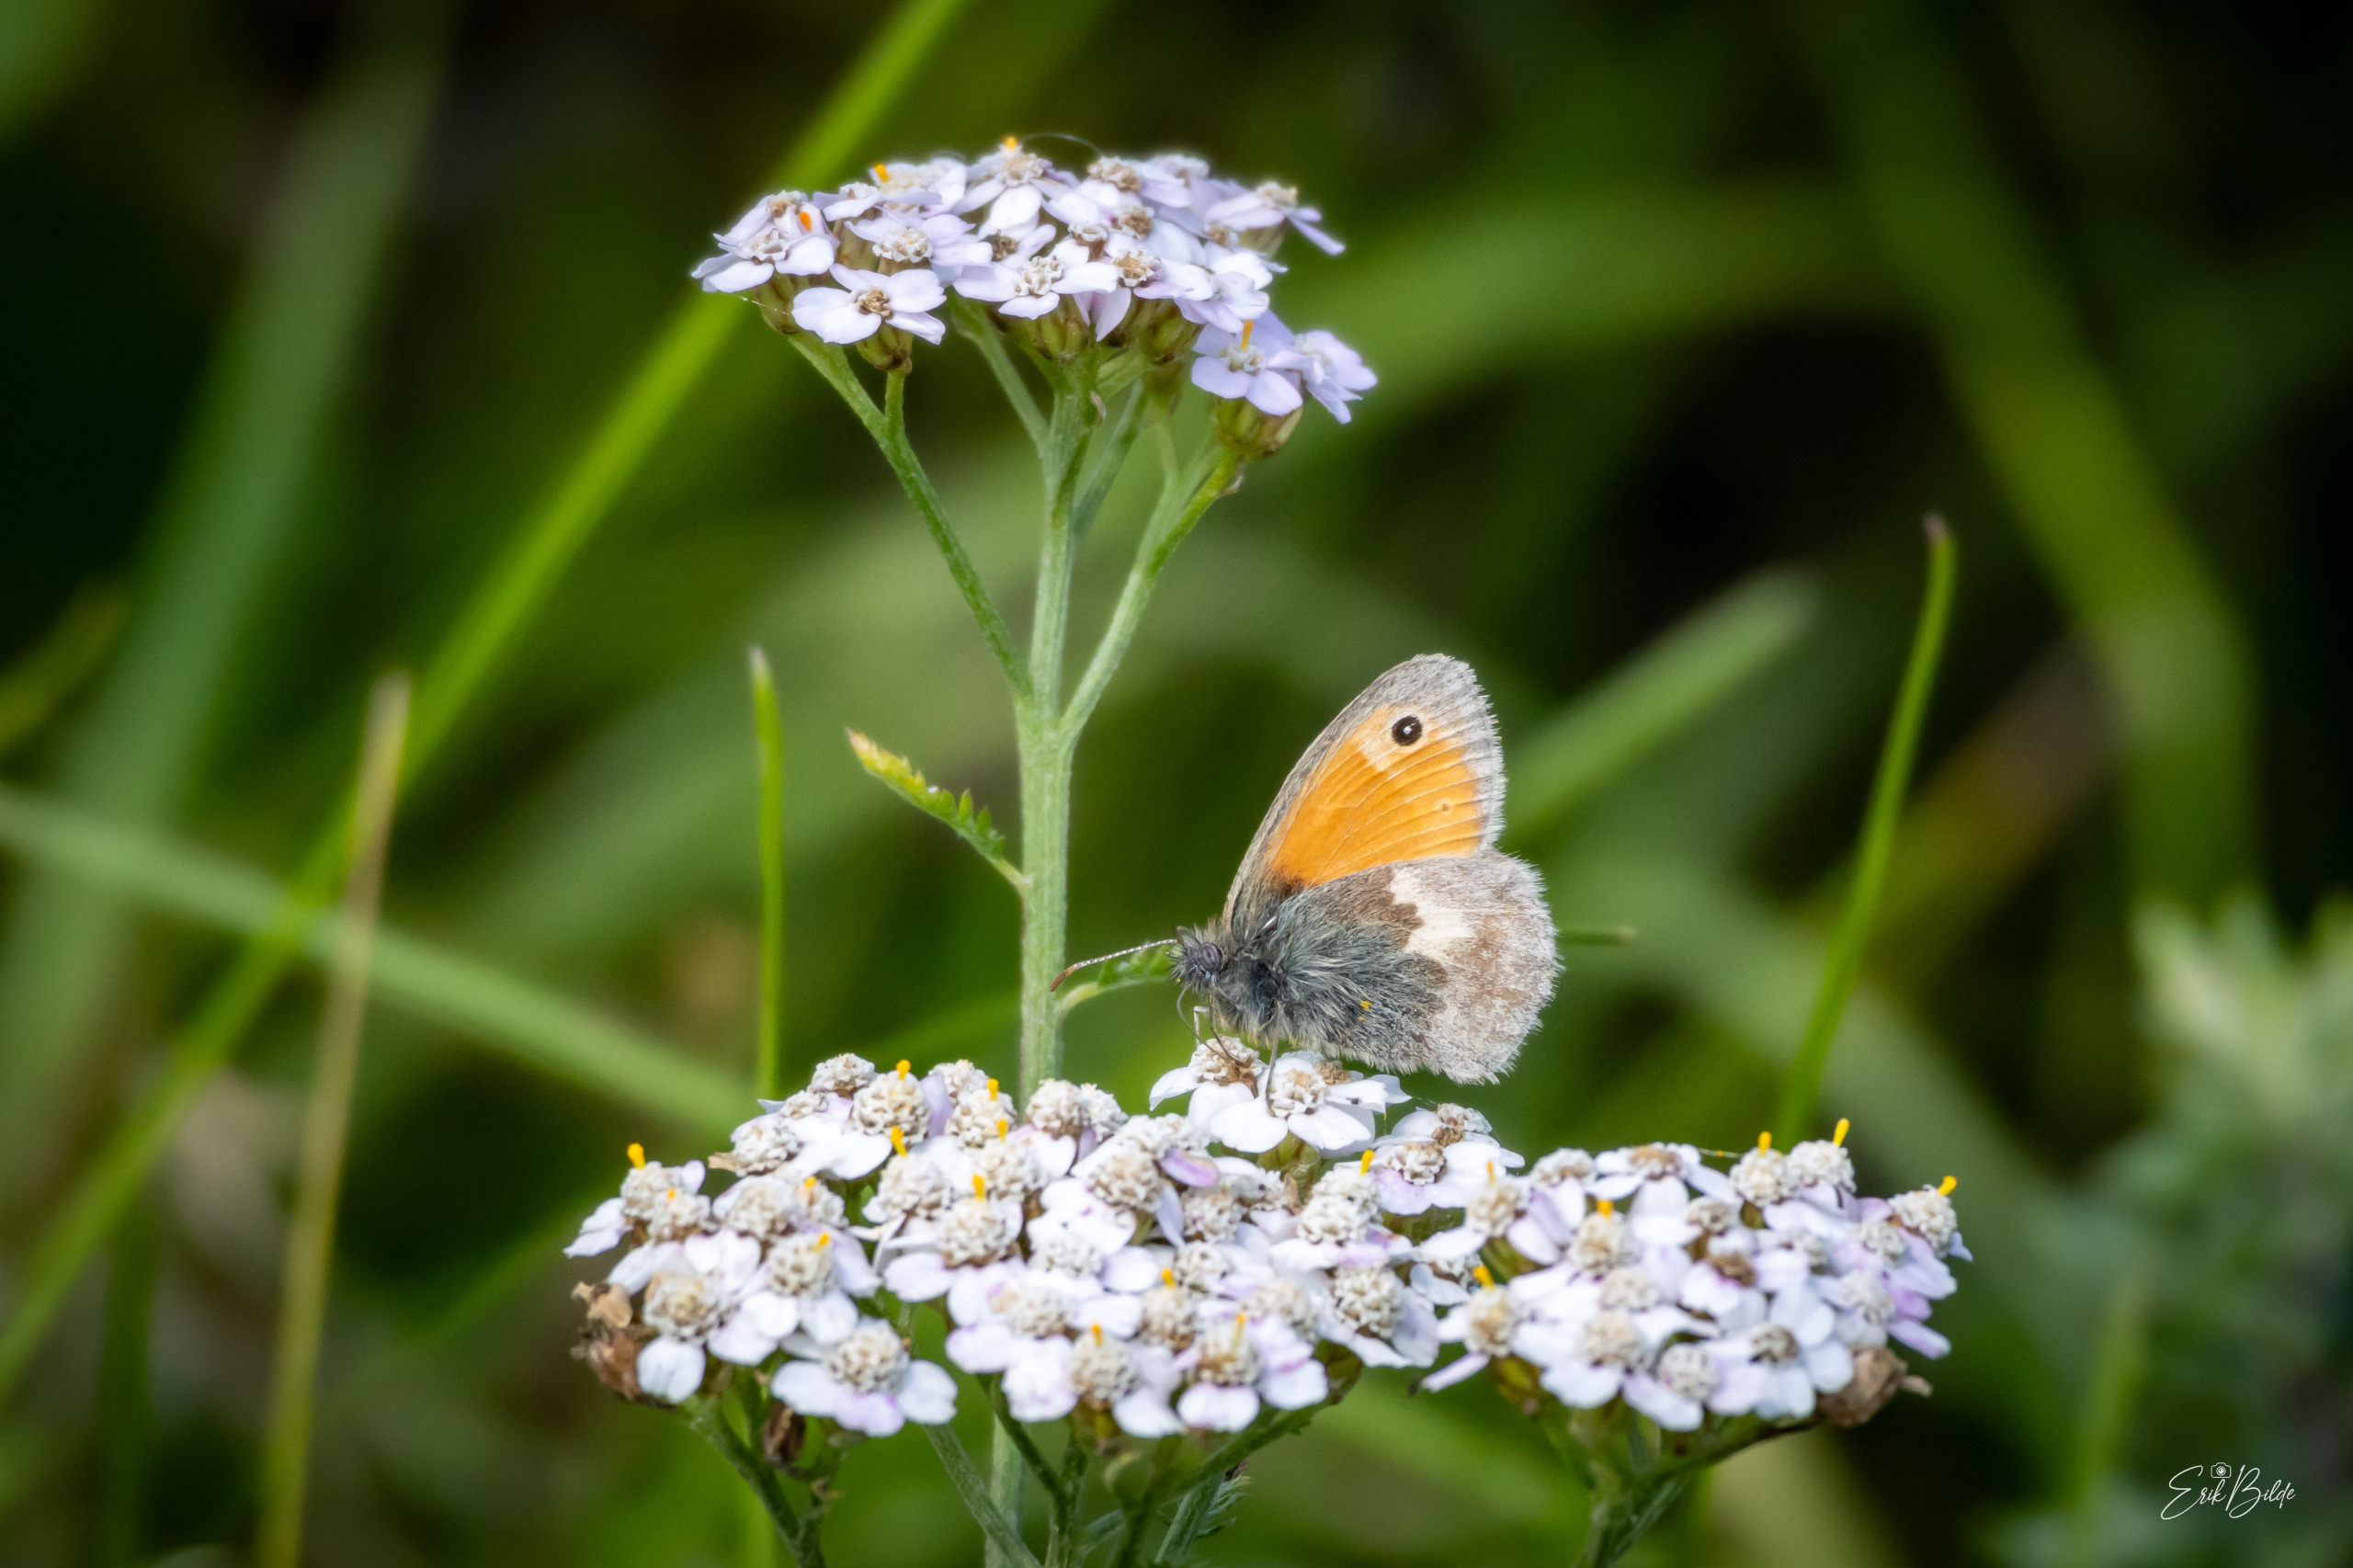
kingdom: Animalia
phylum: Arthropoda
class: Insecta
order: Lepidoptera
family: Nymphalidae
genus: Coenonympha
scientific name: Coenonympha pamphilus
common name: Okkergul randøje
